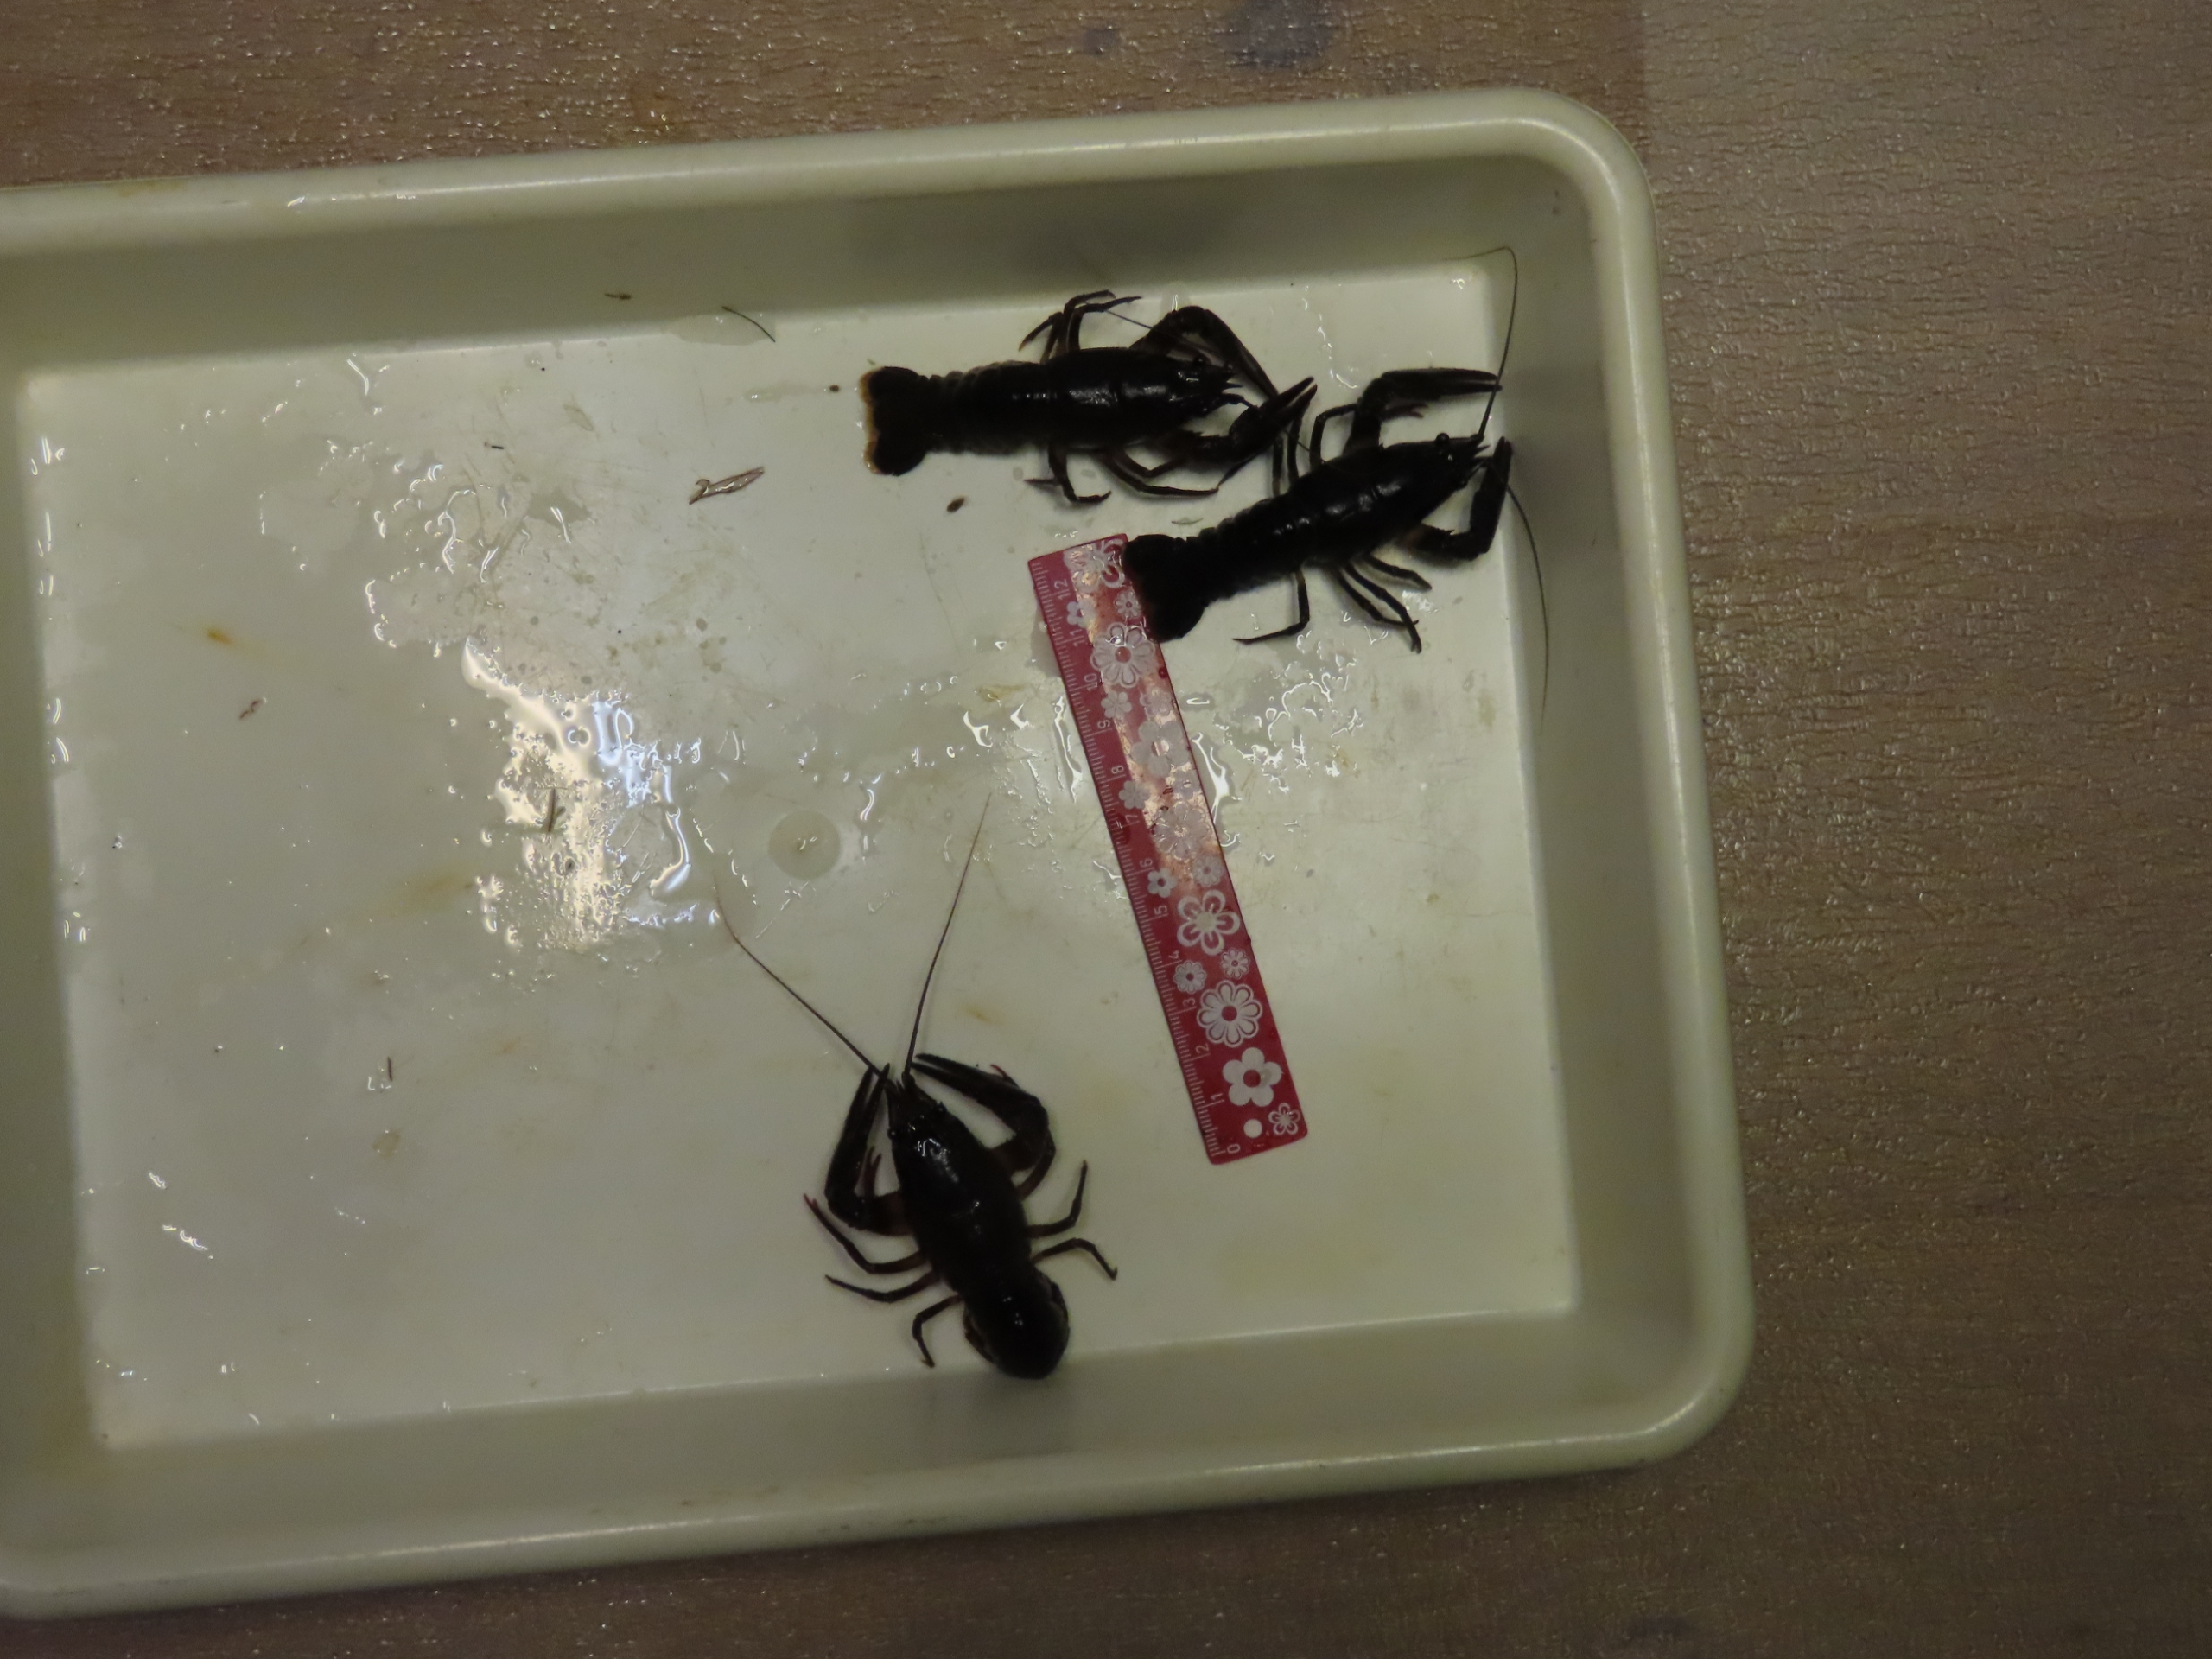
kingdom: Animalia
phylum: Arthropoda
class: Malacostraca
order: Decapoda
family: Astacidae
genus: Astacus
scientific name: Astacus astacus
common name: Flodkrebs
